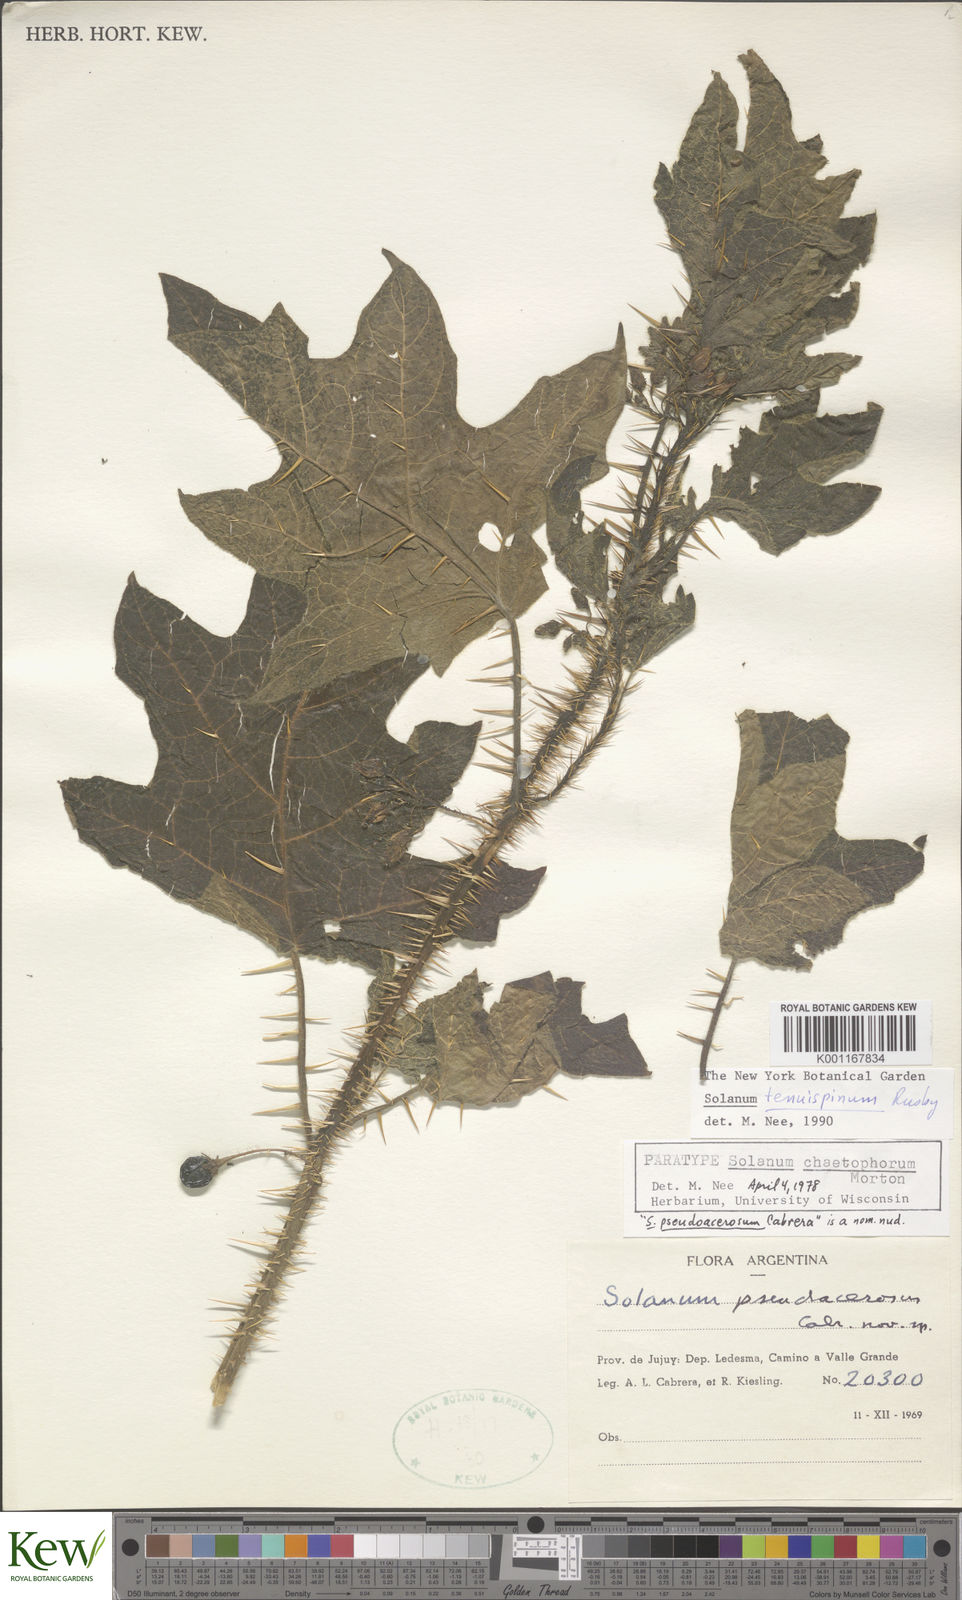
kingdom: Plantae
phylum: Tracheophyta
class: Magnoliopsida
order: Solanales
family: Solanaceae
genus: Solanum
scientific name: Solanum tenuispinum
